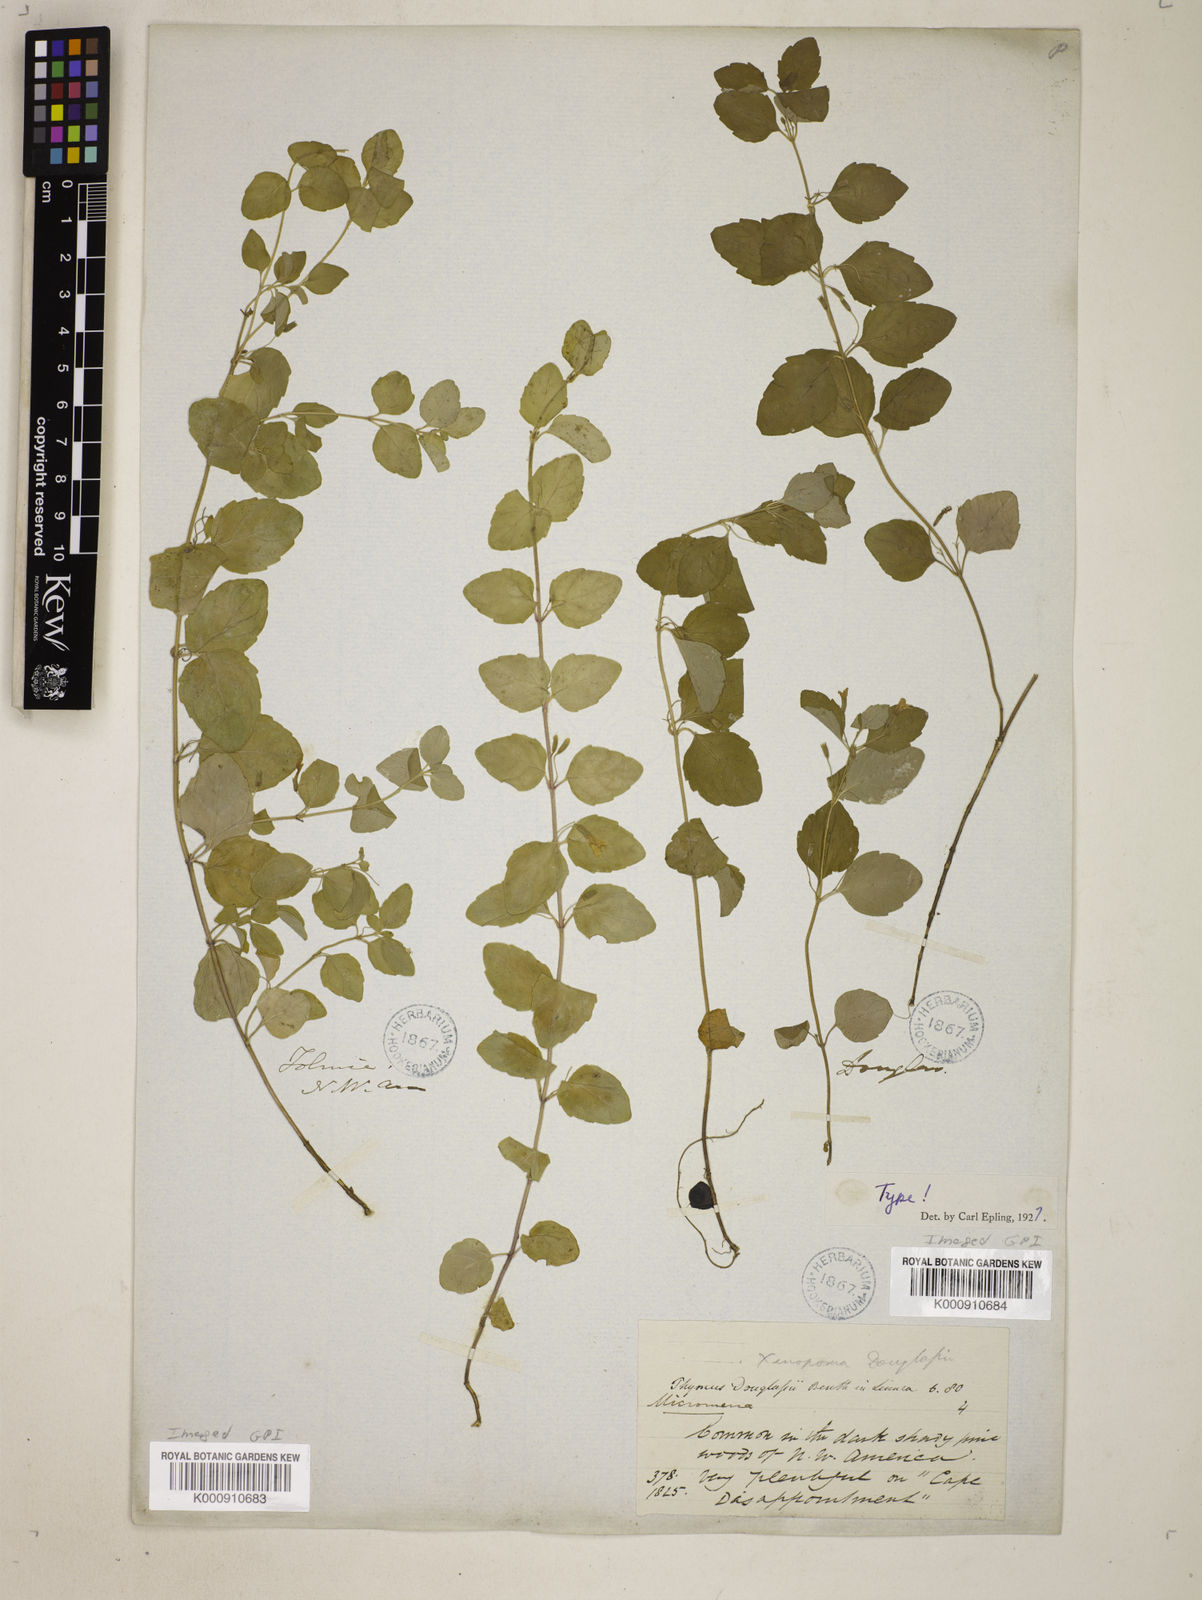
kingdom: Plantae
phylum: Tracheophyta
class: Magnoliopsida
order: Lamiales
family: Lamiaceae
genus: Micromeria
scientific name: Micromeria douglasii
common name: Yerba buena
